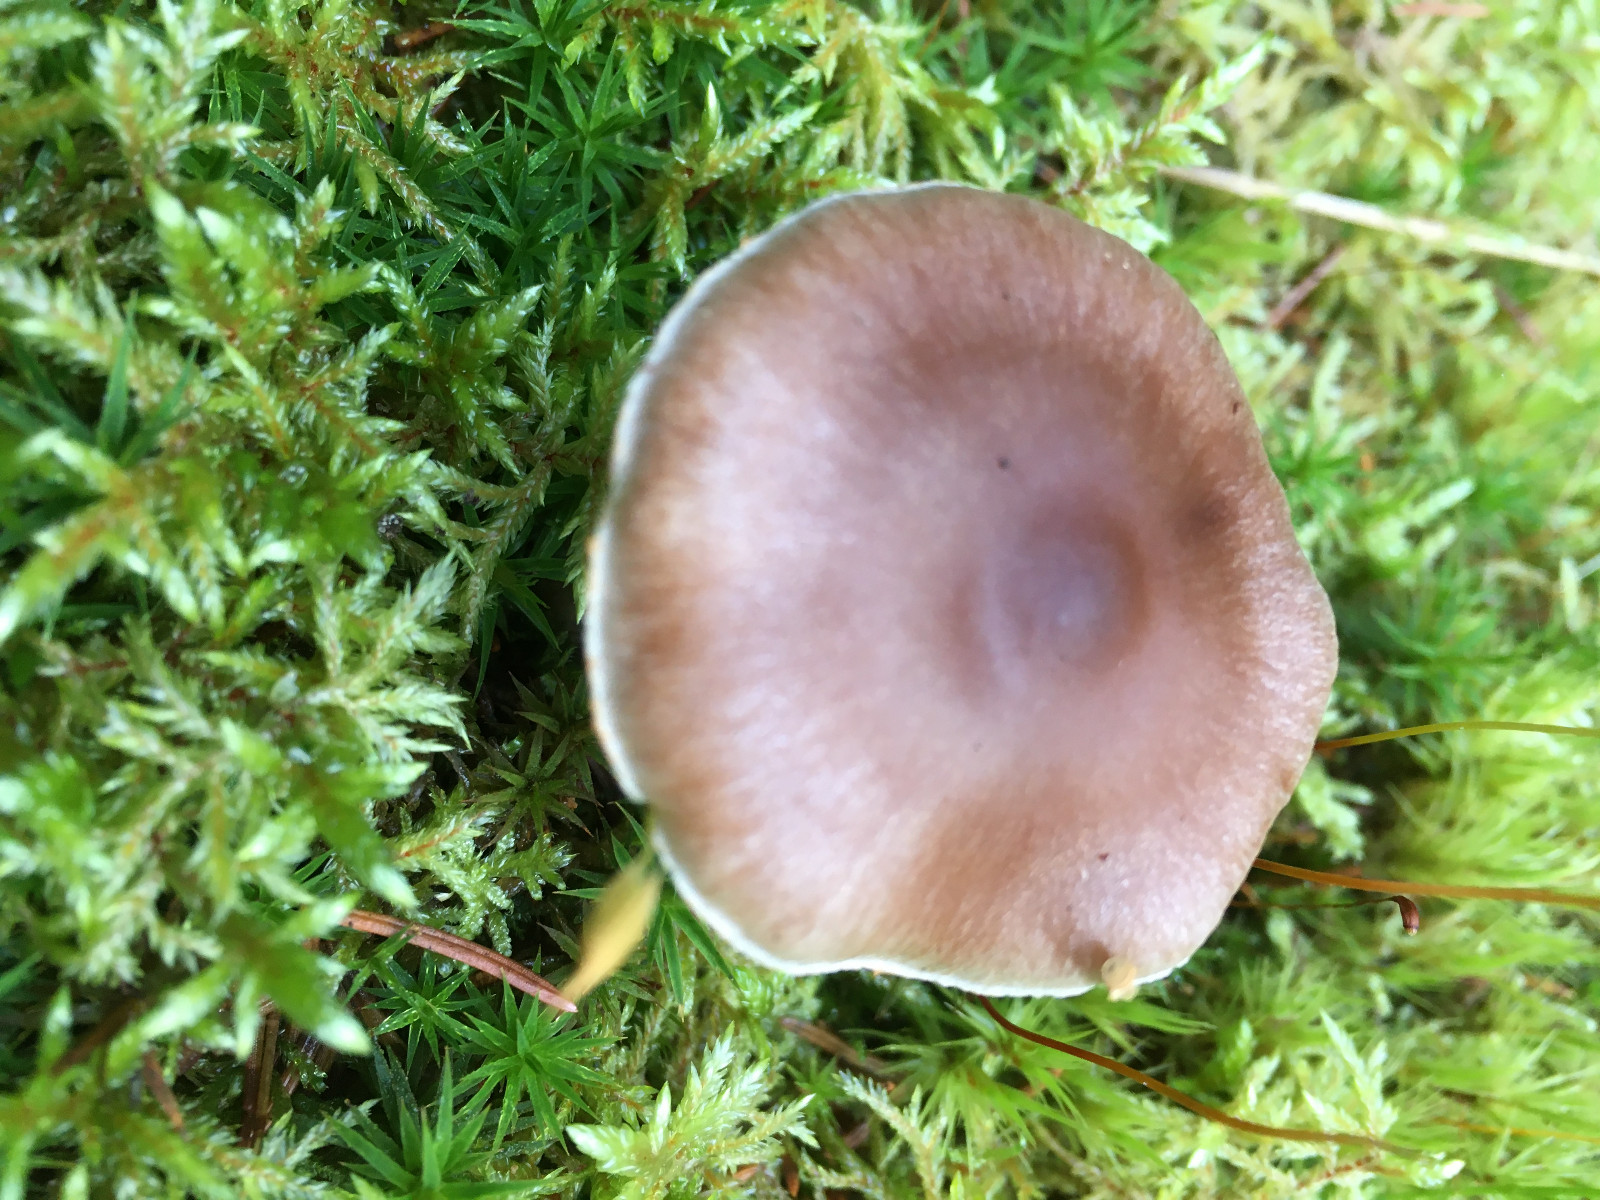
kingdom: Fungi
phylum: Basidiomycota
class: Agaricomycetes
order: Agaricales
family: Cortinariaceae
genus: Cortinarius
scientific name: Cortinarius kauffmanianus
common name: plantage-slørhat
